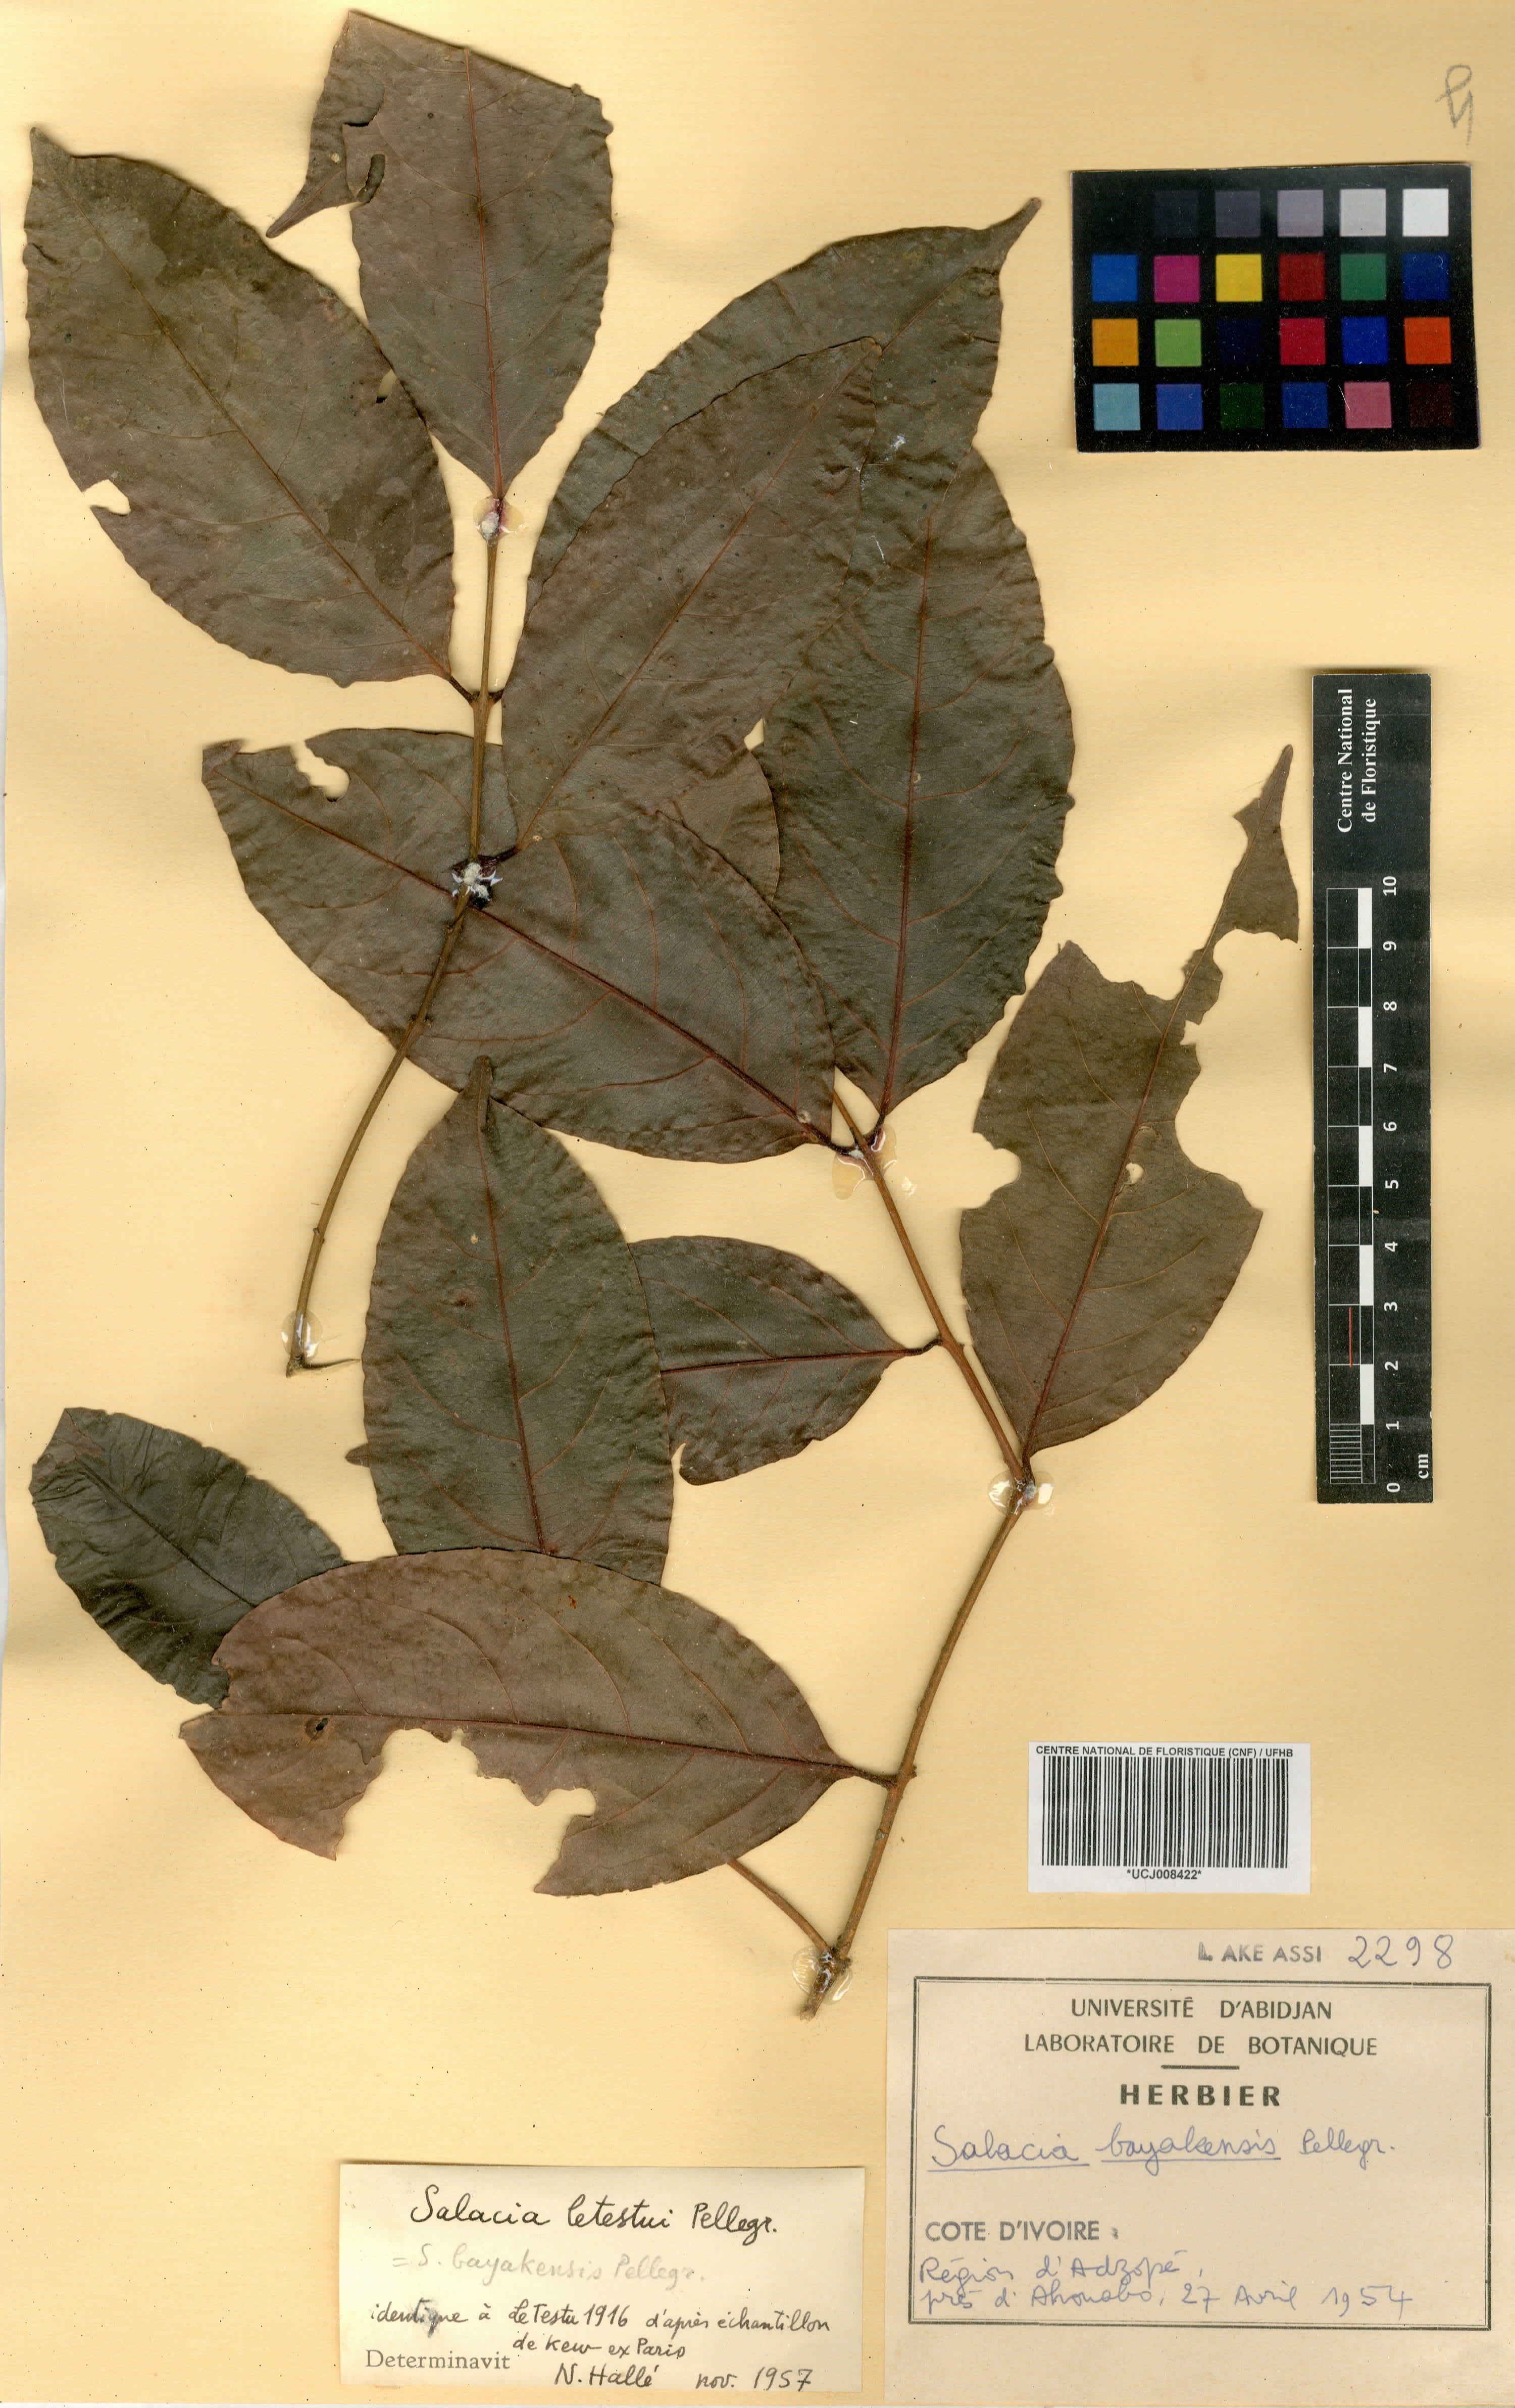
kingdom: Plantae
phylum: Tracheophyta
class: Magnoliopsida
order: Celastrales
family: Celastraceae
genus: Salacia
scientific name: Salacia letestui
